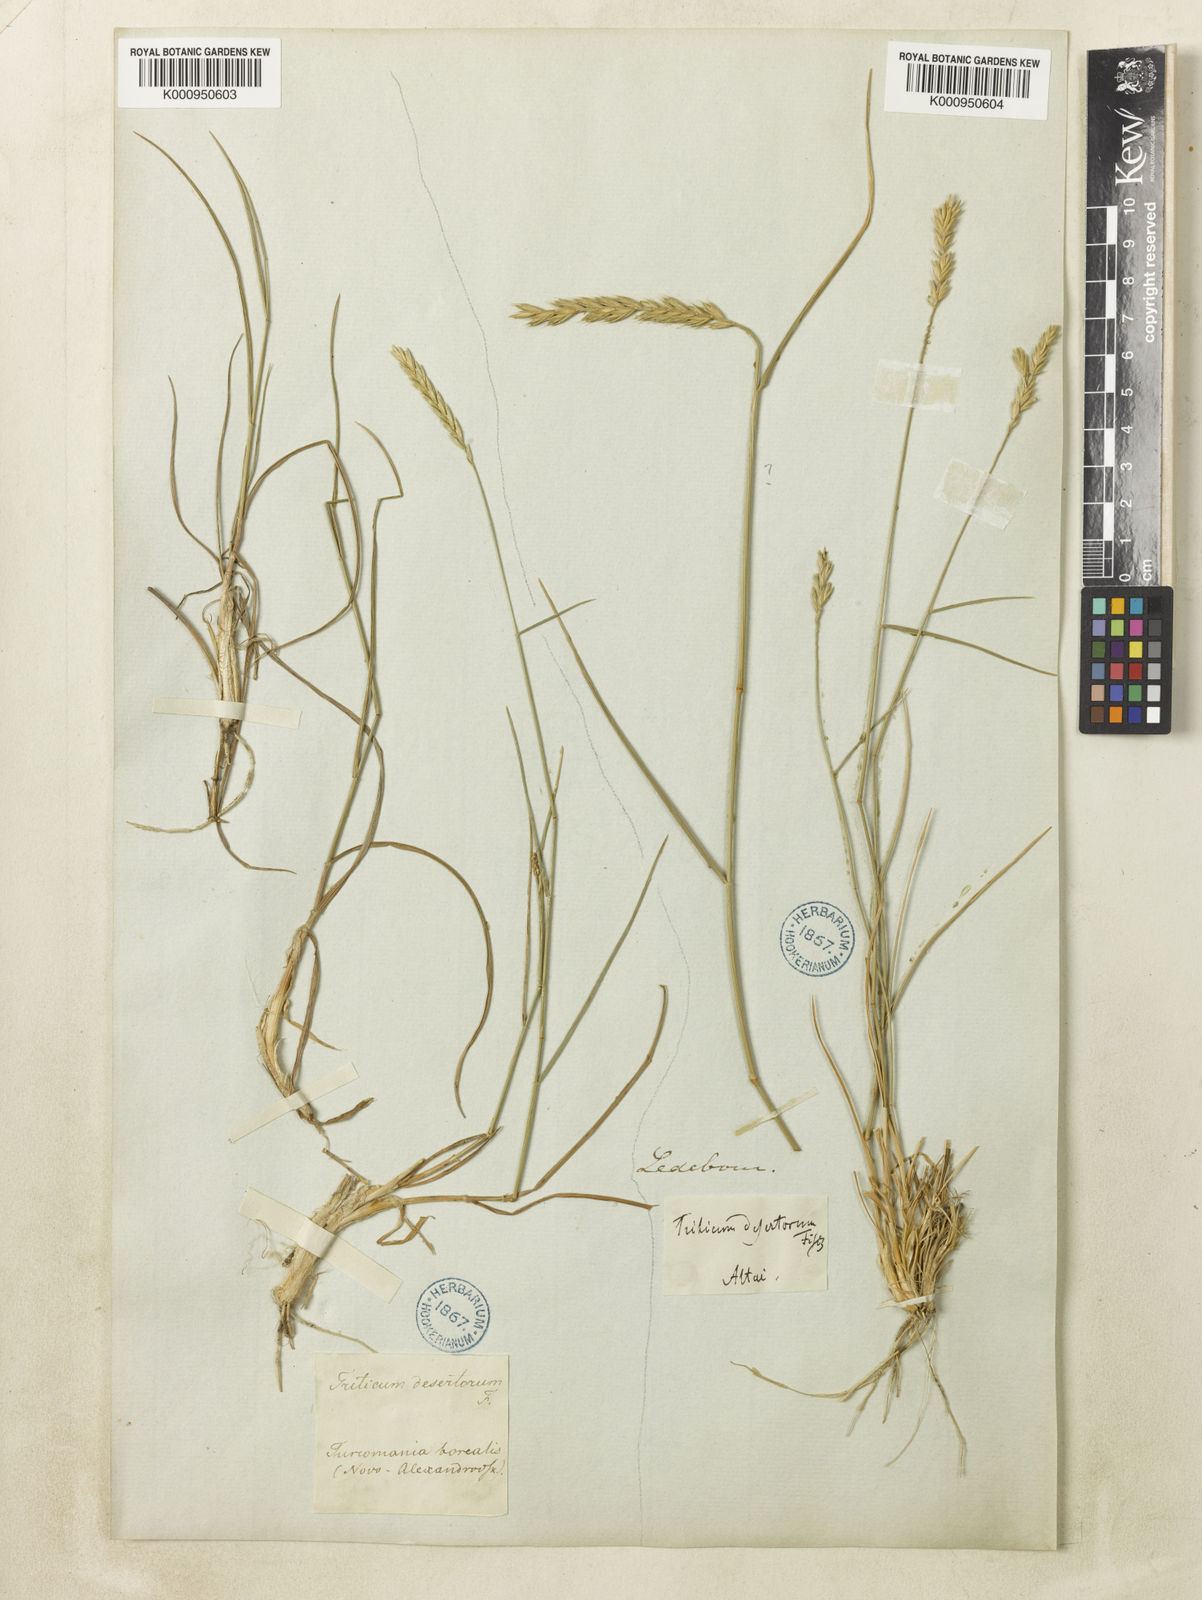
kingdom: Plantae
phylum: Tracheophyta
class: Liliopsida
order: Poales
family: Poaceae
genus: Agropyron
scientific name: Agropyron desertorum
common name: Desert wheatgrass
